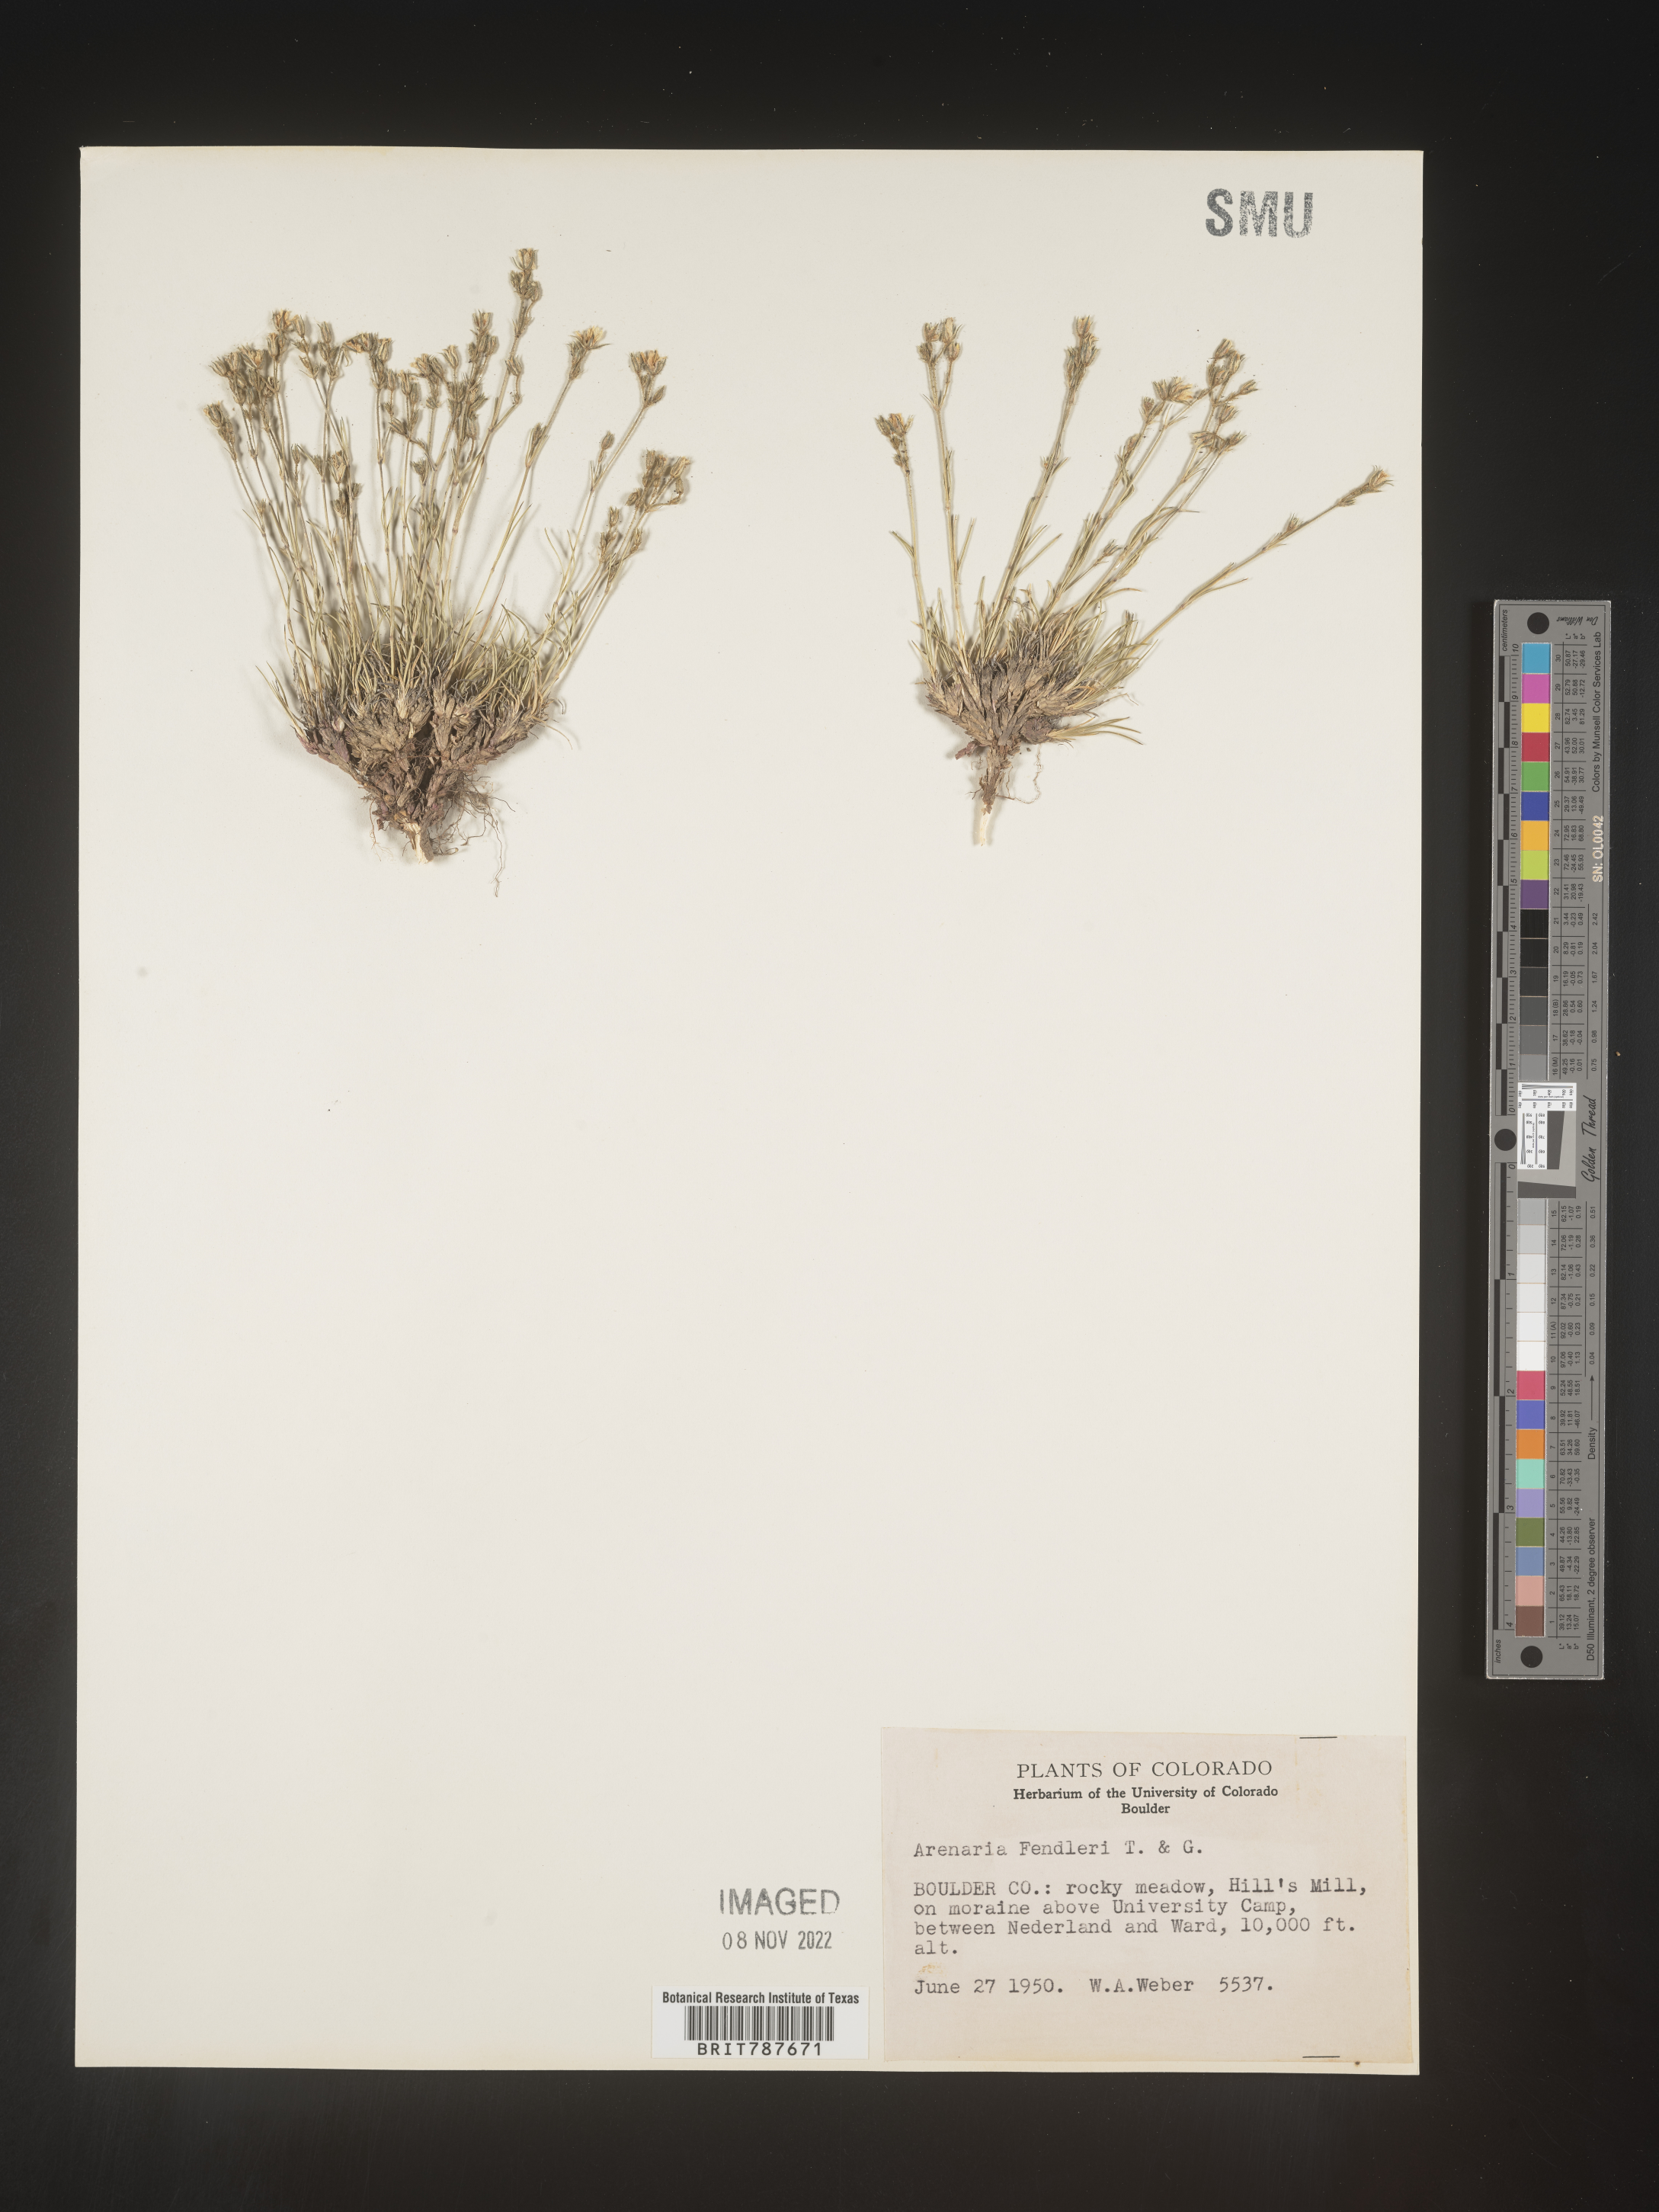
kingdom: Plantae
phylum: Tracheophyta
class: Magnoliopsida
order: Caryophyllales
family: Caryophyllaceae
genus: Arenaria
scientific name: Arenaria
